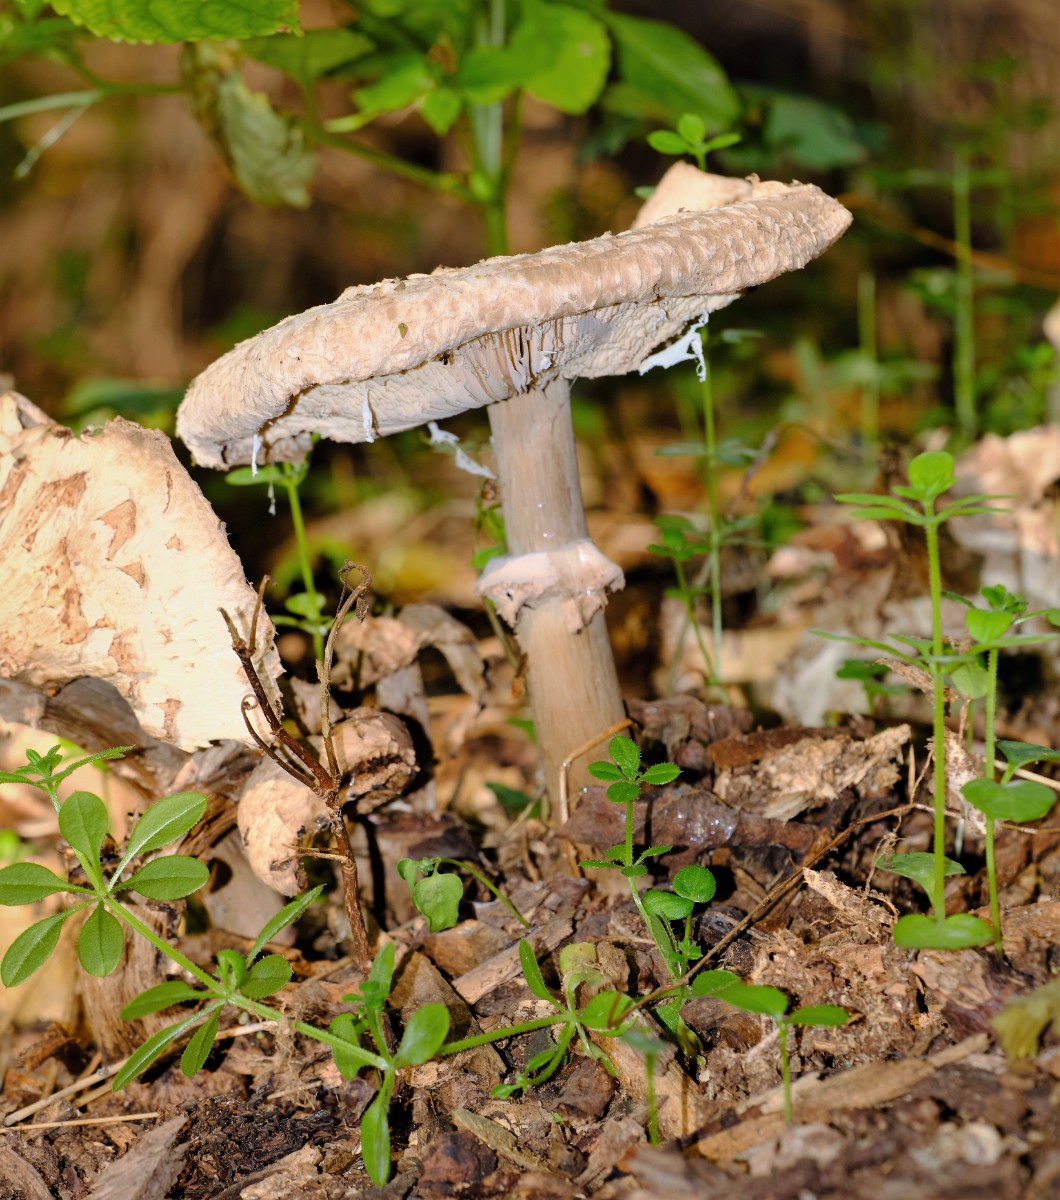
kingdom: Fungi
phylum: Basidiomycota
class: Agaricomycetes
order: Agaricales
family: Agaricaceae
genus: Chlorophyllum
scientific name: Chlorophyllum
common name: rabarberhat
